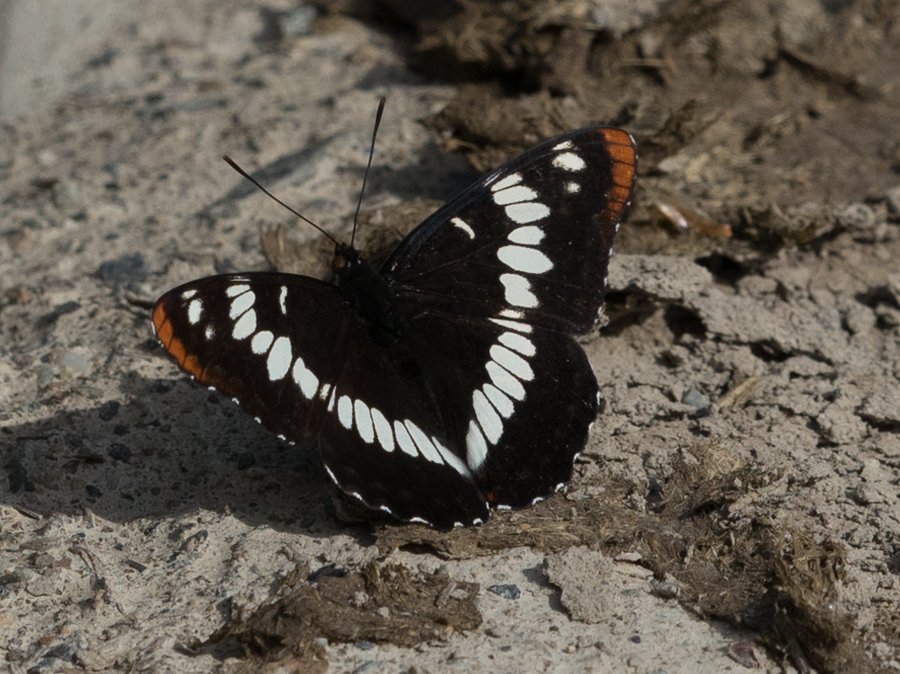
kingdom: Animalia
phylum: Arthropoda
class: Insecta
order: Lepidoptera
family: Nymphalidae
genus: Limenitis
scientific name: Limenitis lorquini
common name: Lorquin's Admiral
